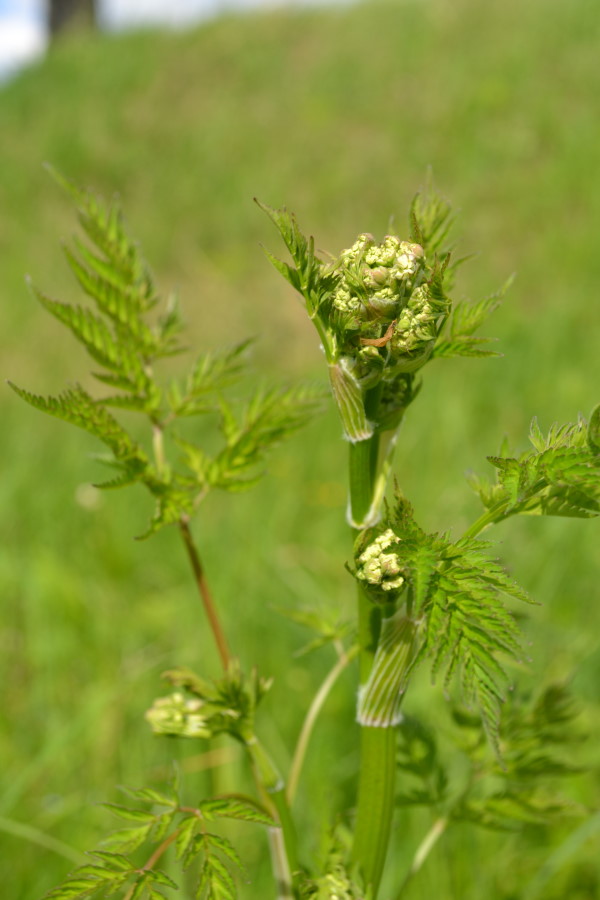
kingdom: Plantae
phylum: Tracheophyta
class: Magnoliopsida
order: Apiales
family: Apiaceae
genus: Anthriscus
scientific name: Anthriscus sylvestris
